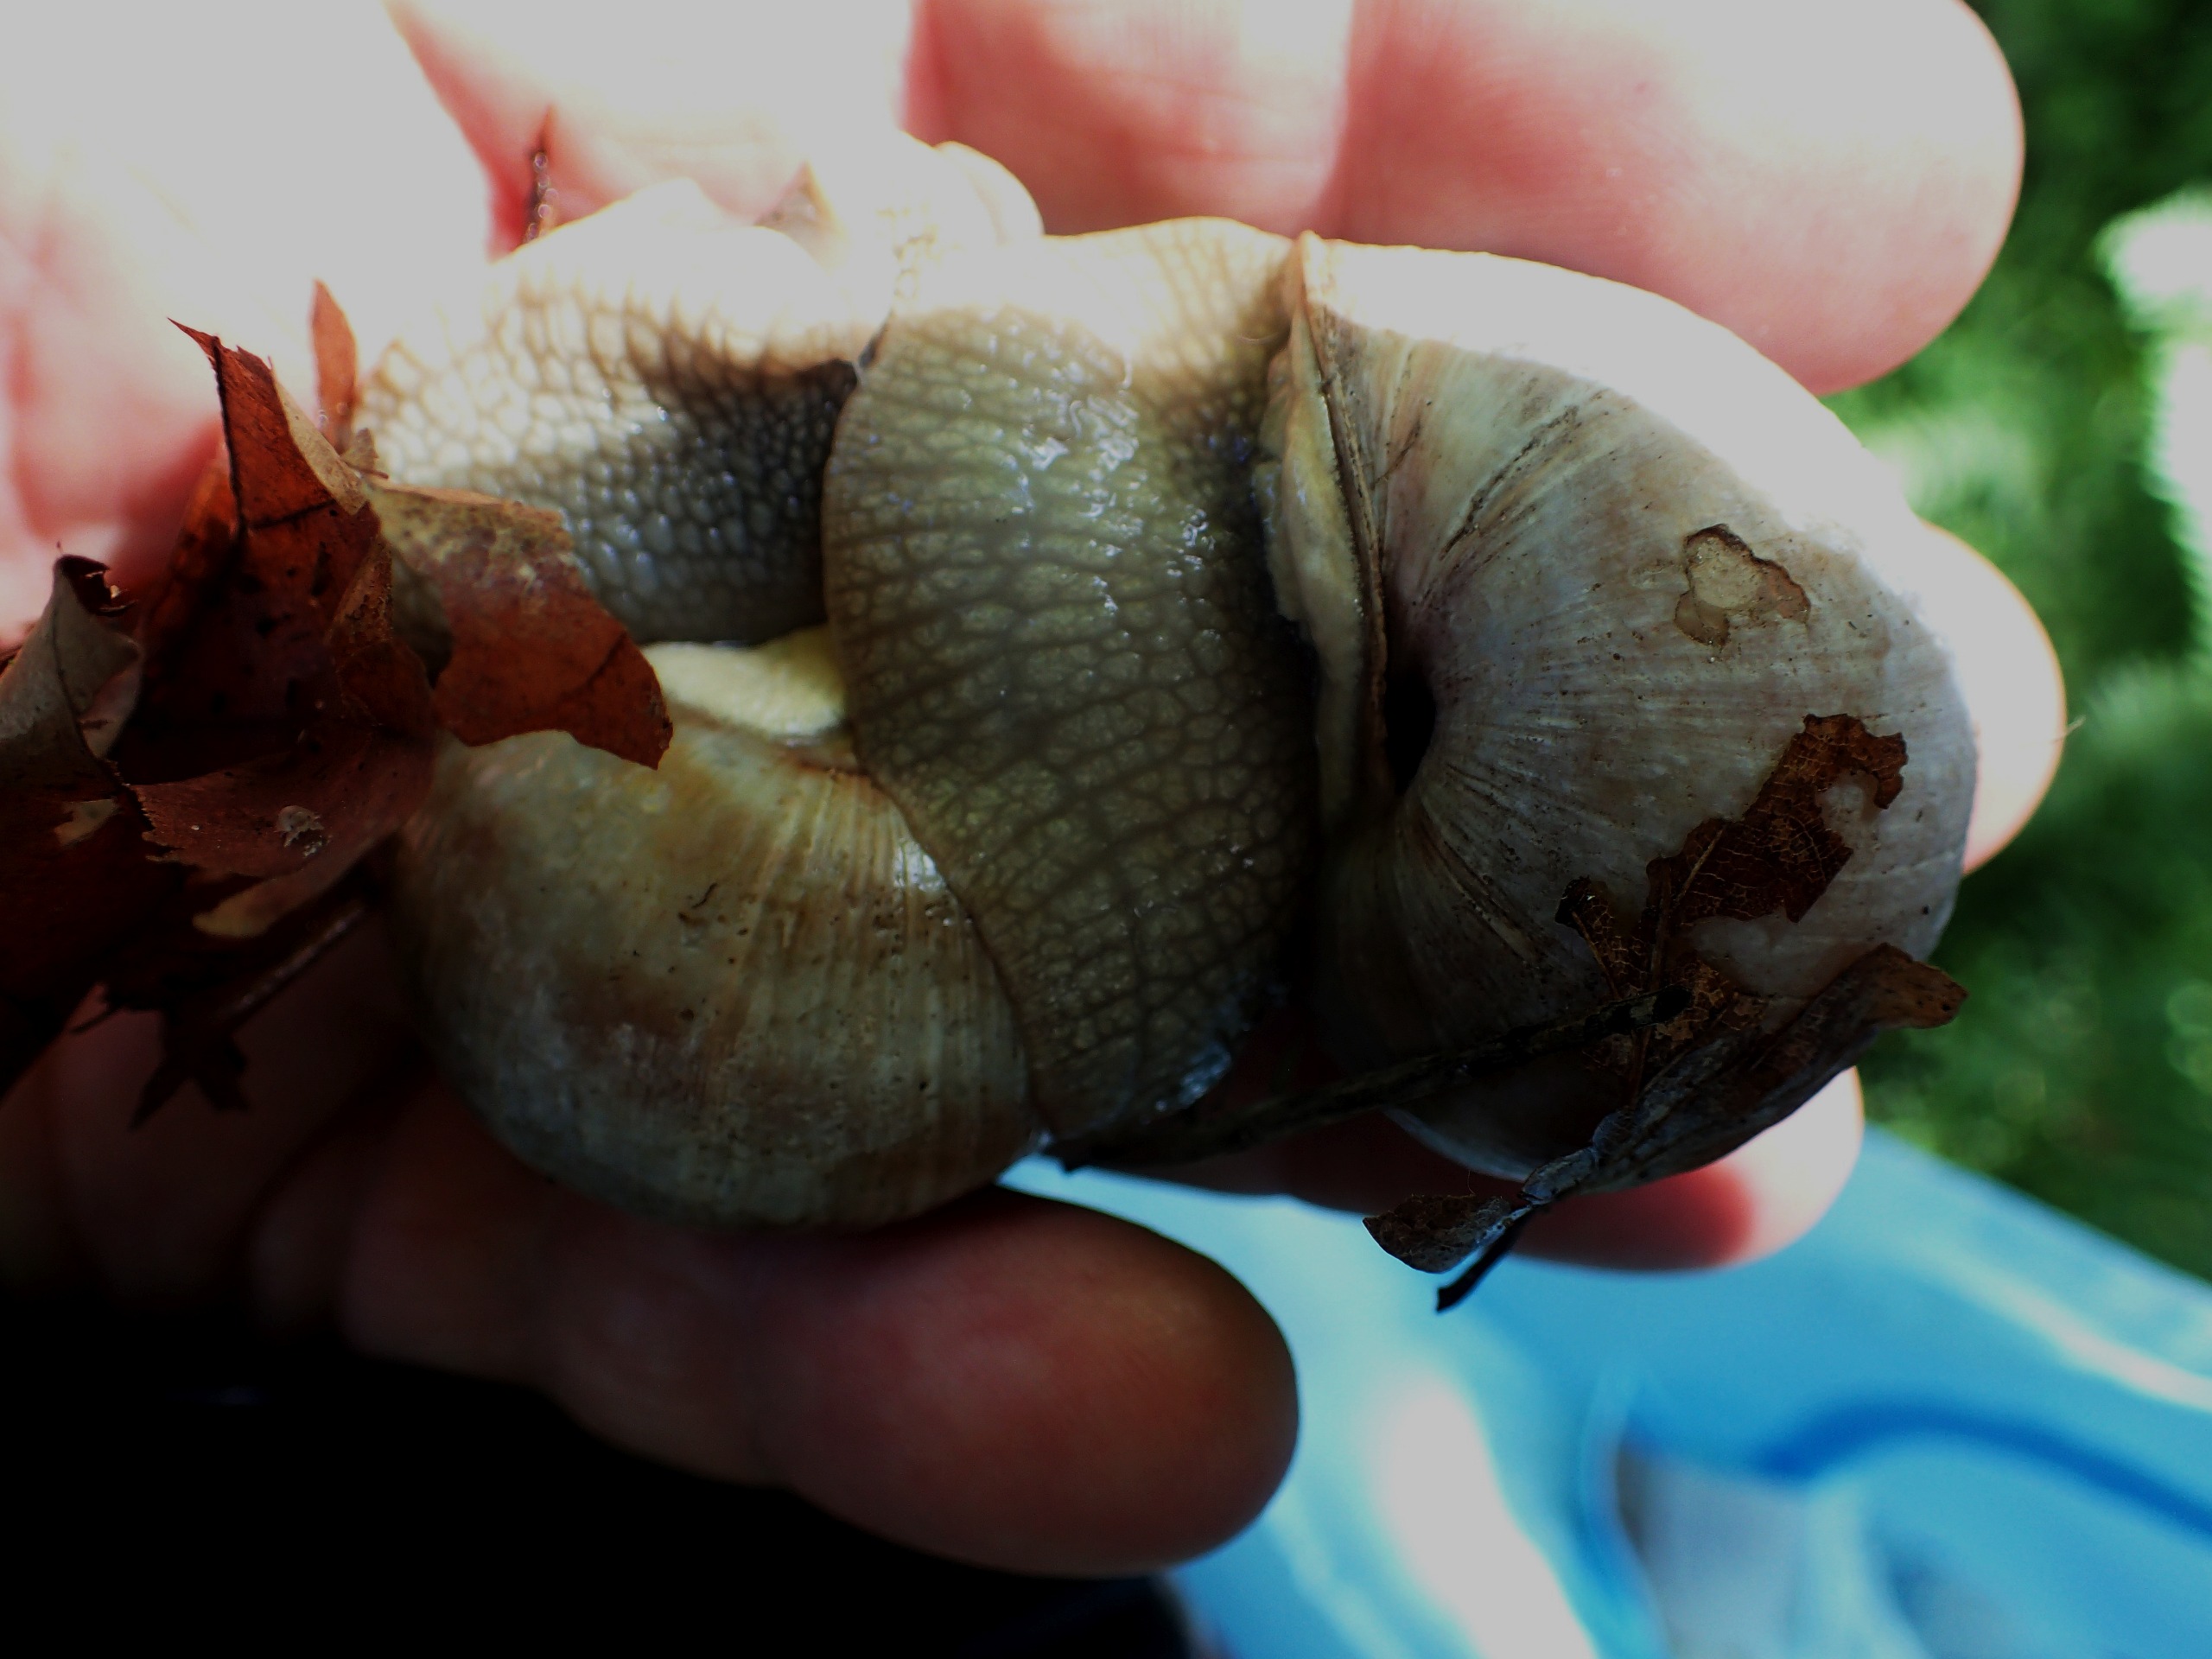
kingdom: Animalia
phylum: Mollusca
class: Gastropoda
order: Stylommatophora
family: Helicidae
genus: Helix
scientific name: Helix pomatia
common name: Vinbjergsnegl
